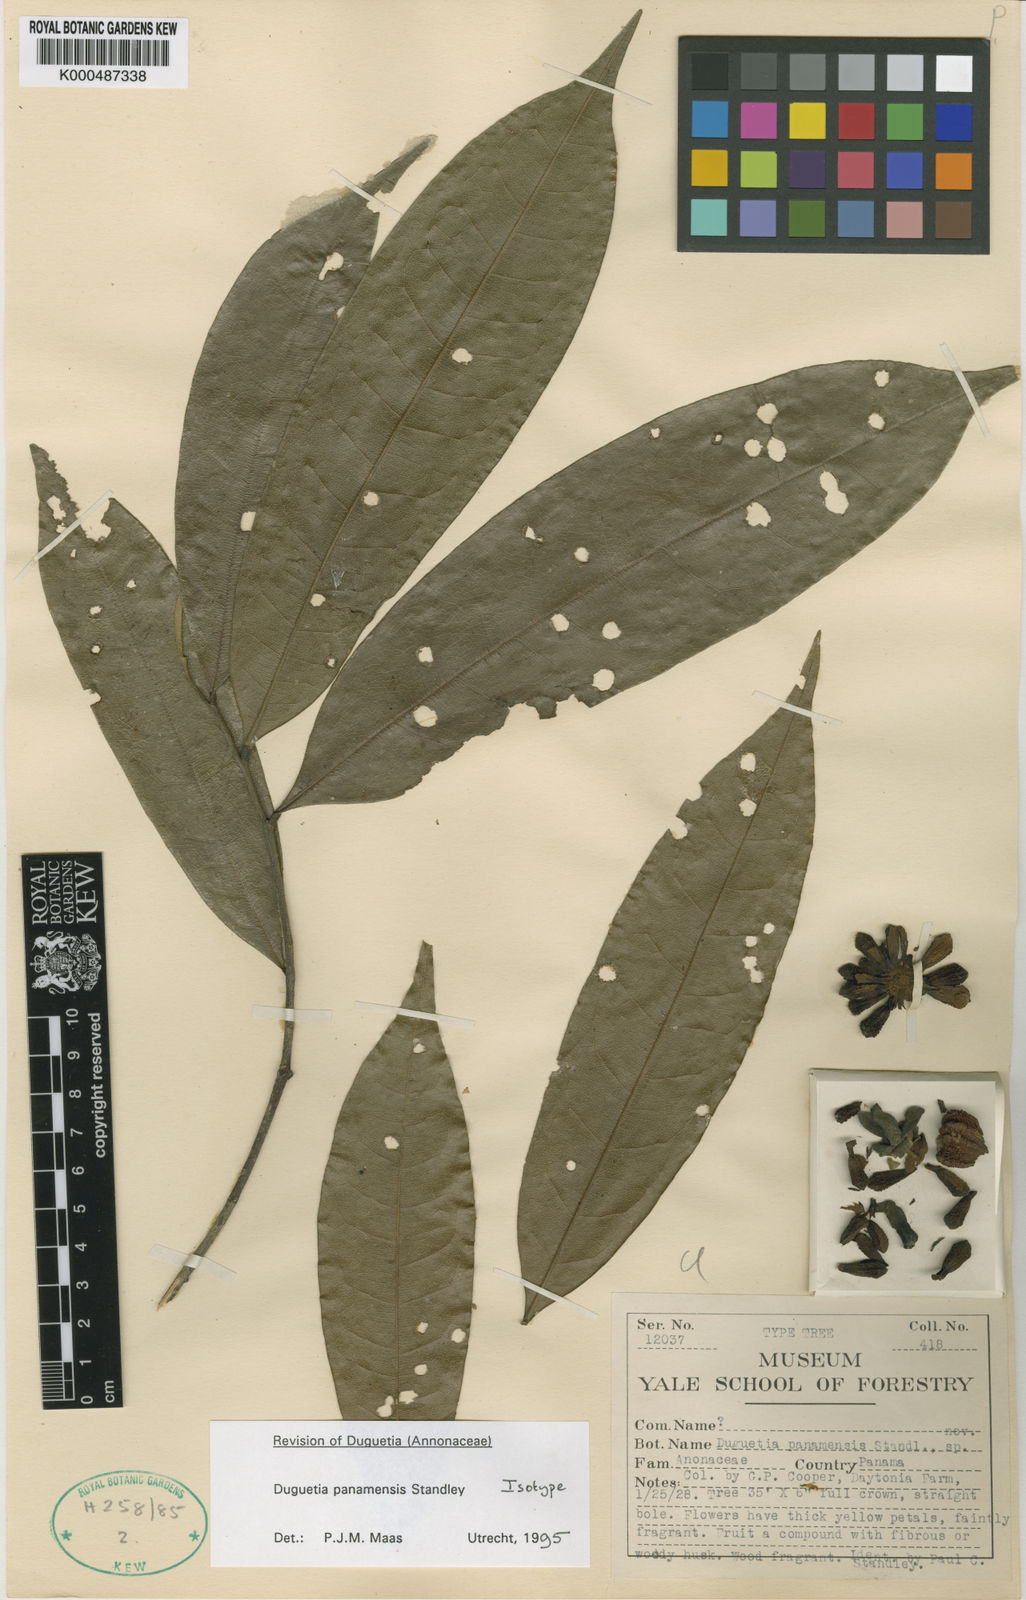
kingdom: Plantae
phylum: Tracheophyta
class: Magnoliopsida
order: Magnoliales
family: Annonaceae
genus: Duguetia
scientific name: Duguetia panamensis
